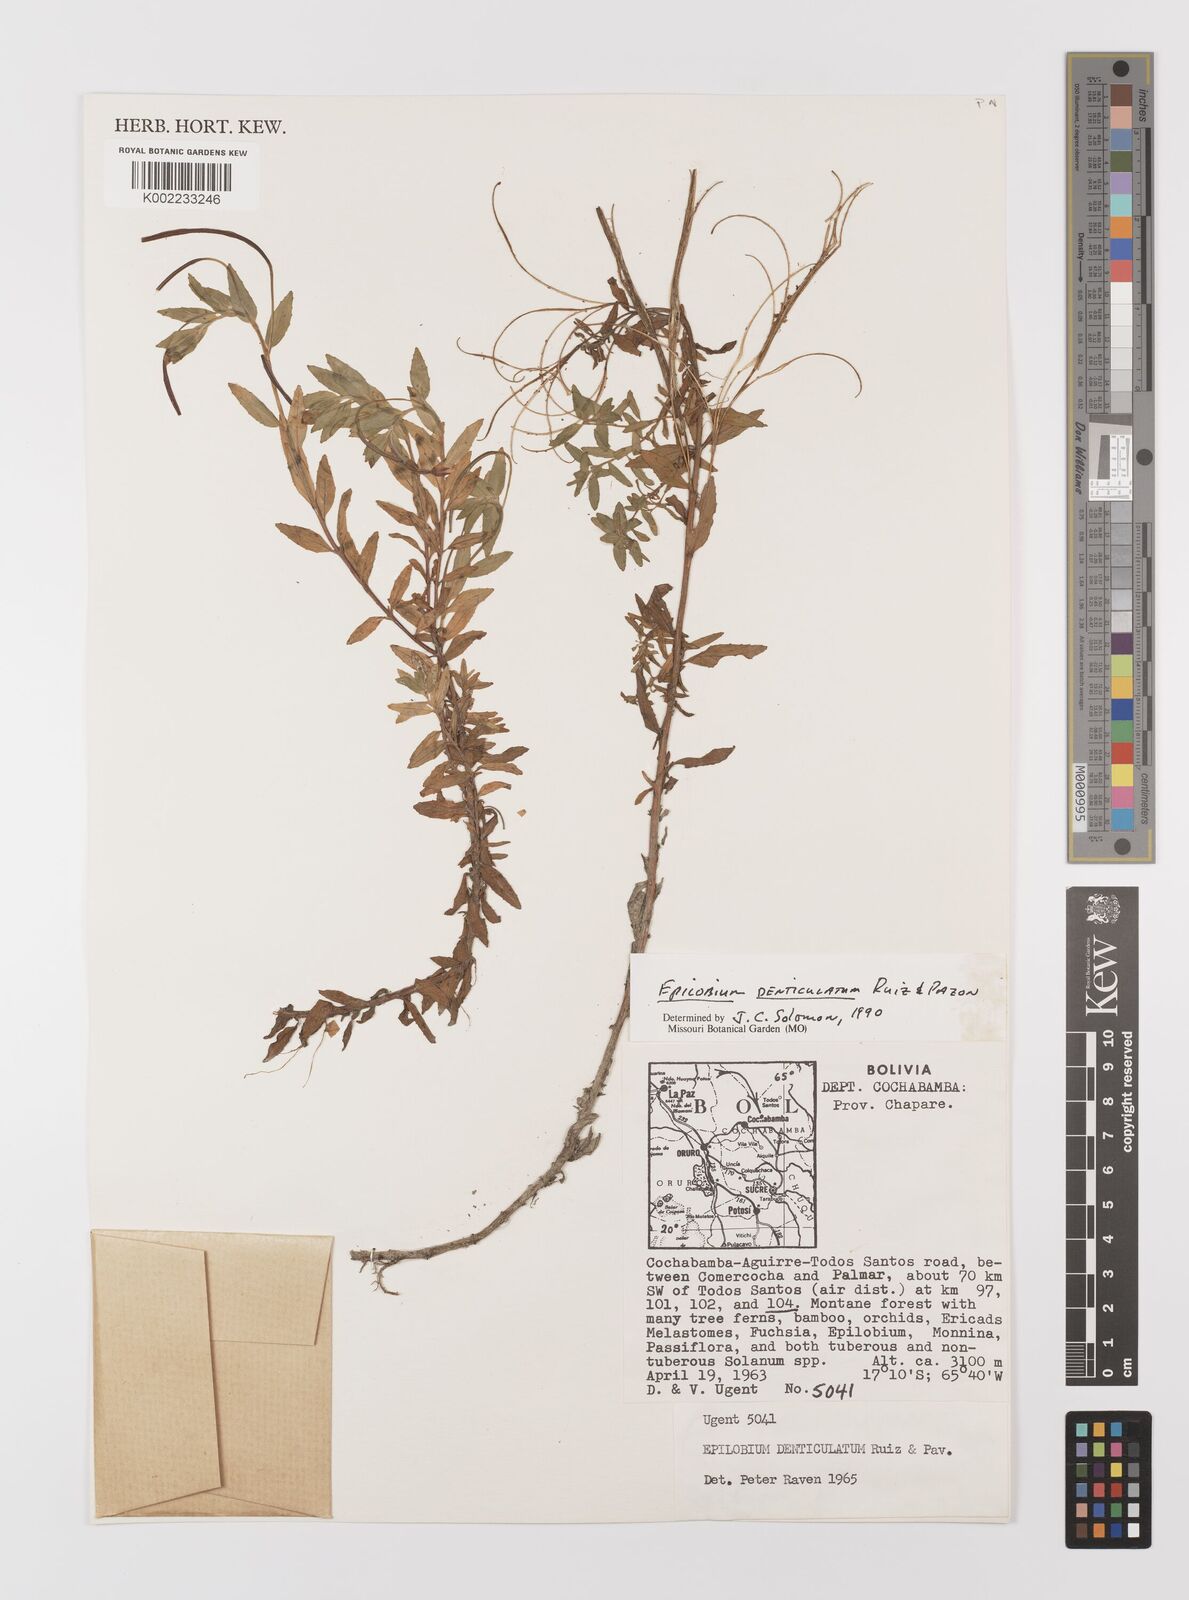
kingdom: Plantae
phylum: Tracheophyta
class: Magnoliopsida
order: Myrtales
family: Onagraceae
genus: Epilobium
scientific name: Epilobium denticulatum
